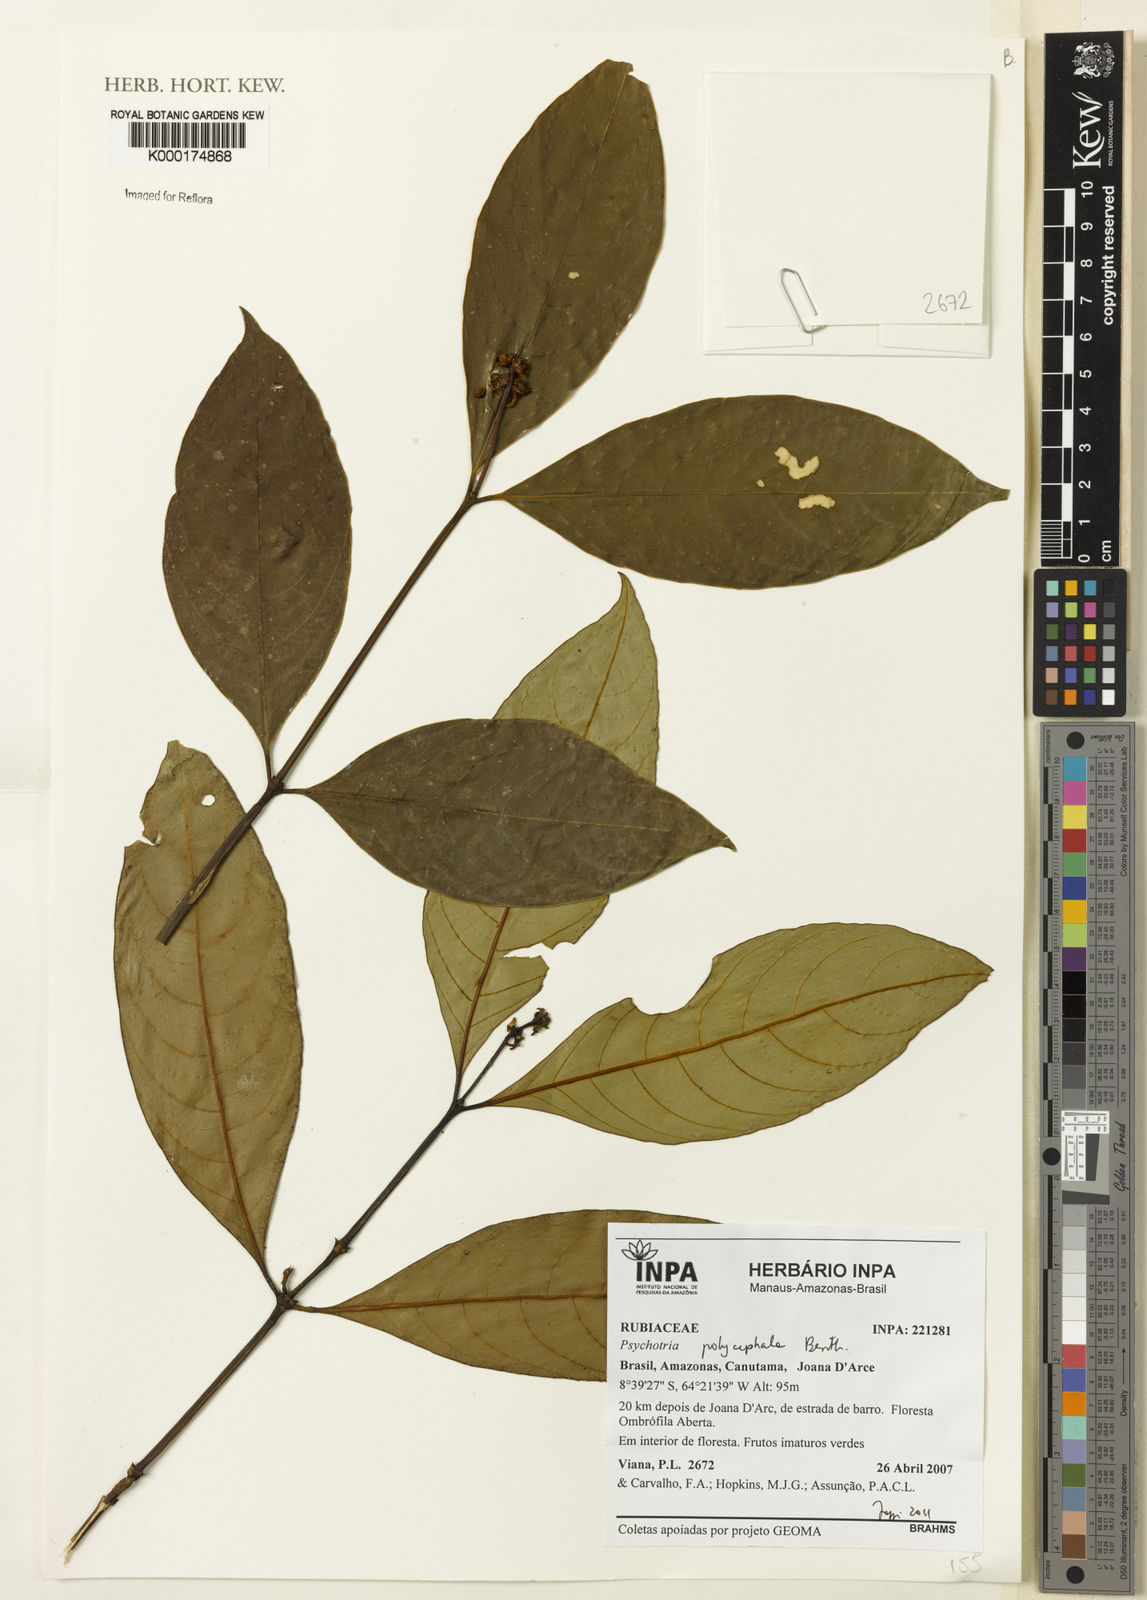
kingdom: Plantae
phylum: Tracheophyta
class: Magnoliopsida
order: Gentianales
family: Rubiaceae
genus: Palicourea
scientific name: Palicourea polycephala
